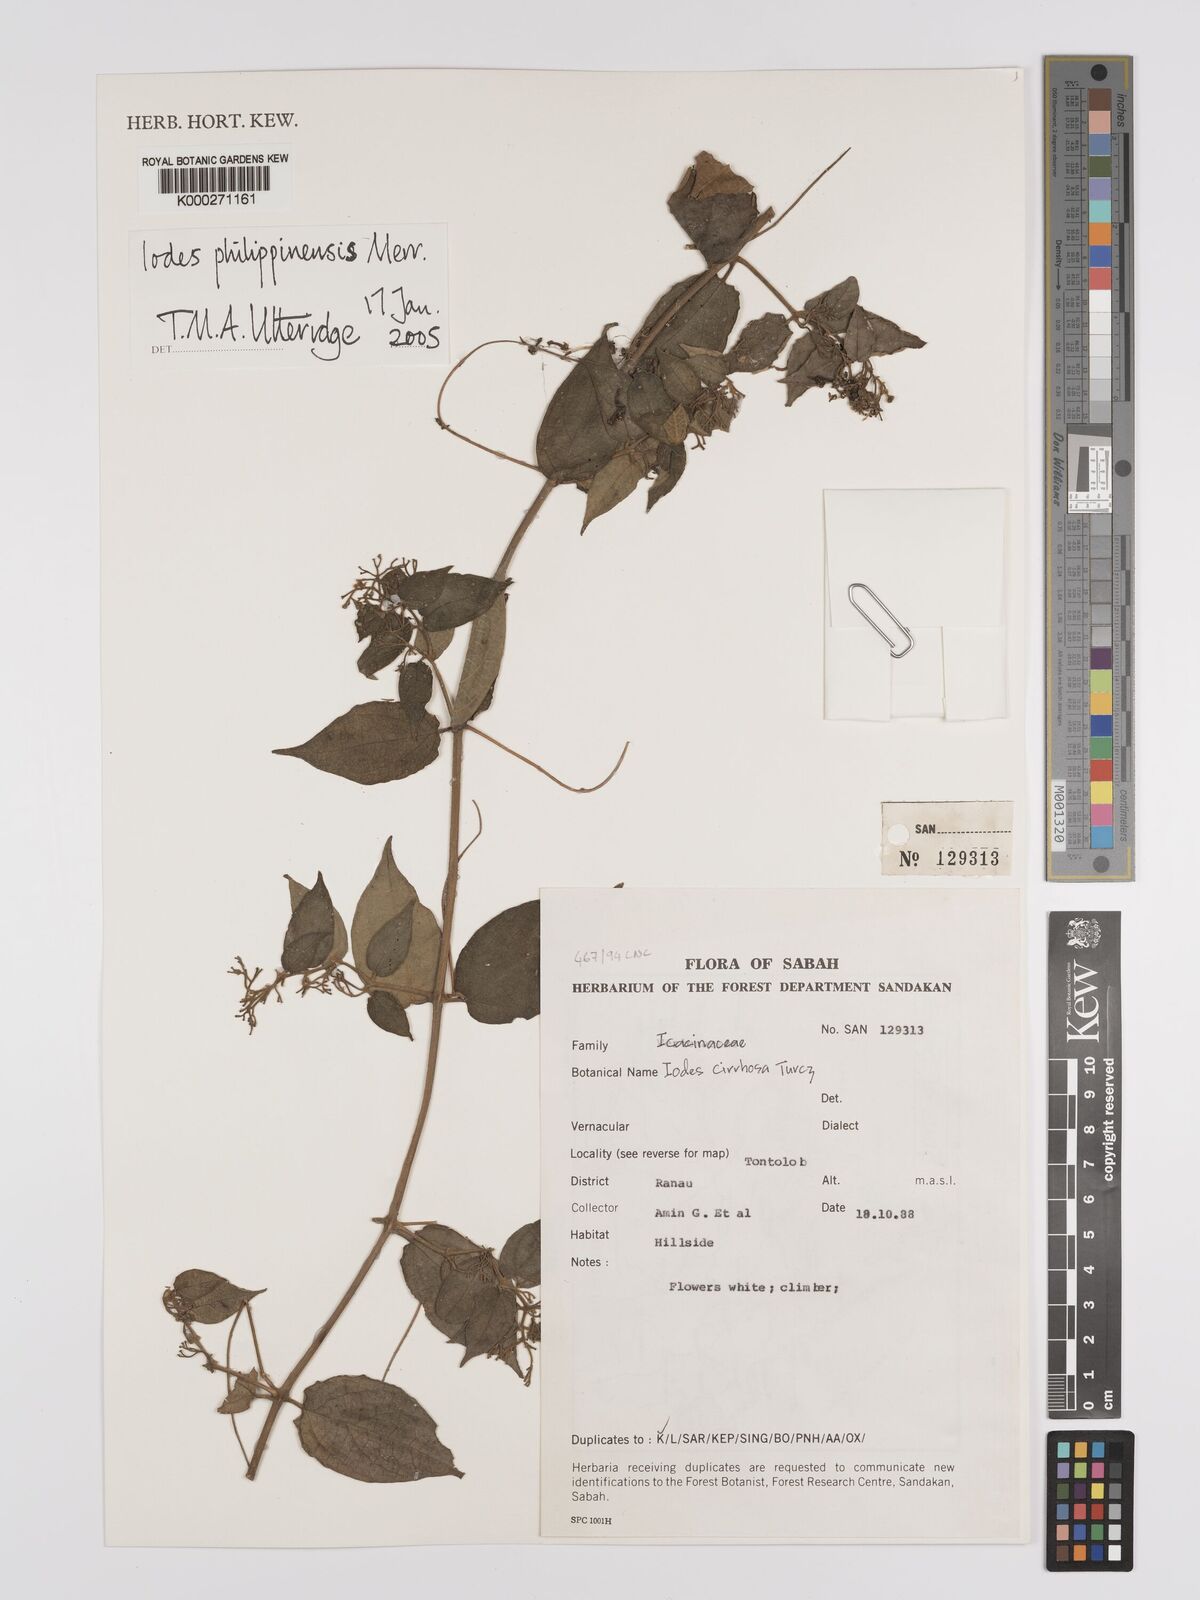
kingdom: Plantae
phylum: Tracheophyta
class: Magnoliopsida
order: Icacinales
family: Icacinaceae
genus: Iodes
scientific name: Iodes philippinensis
